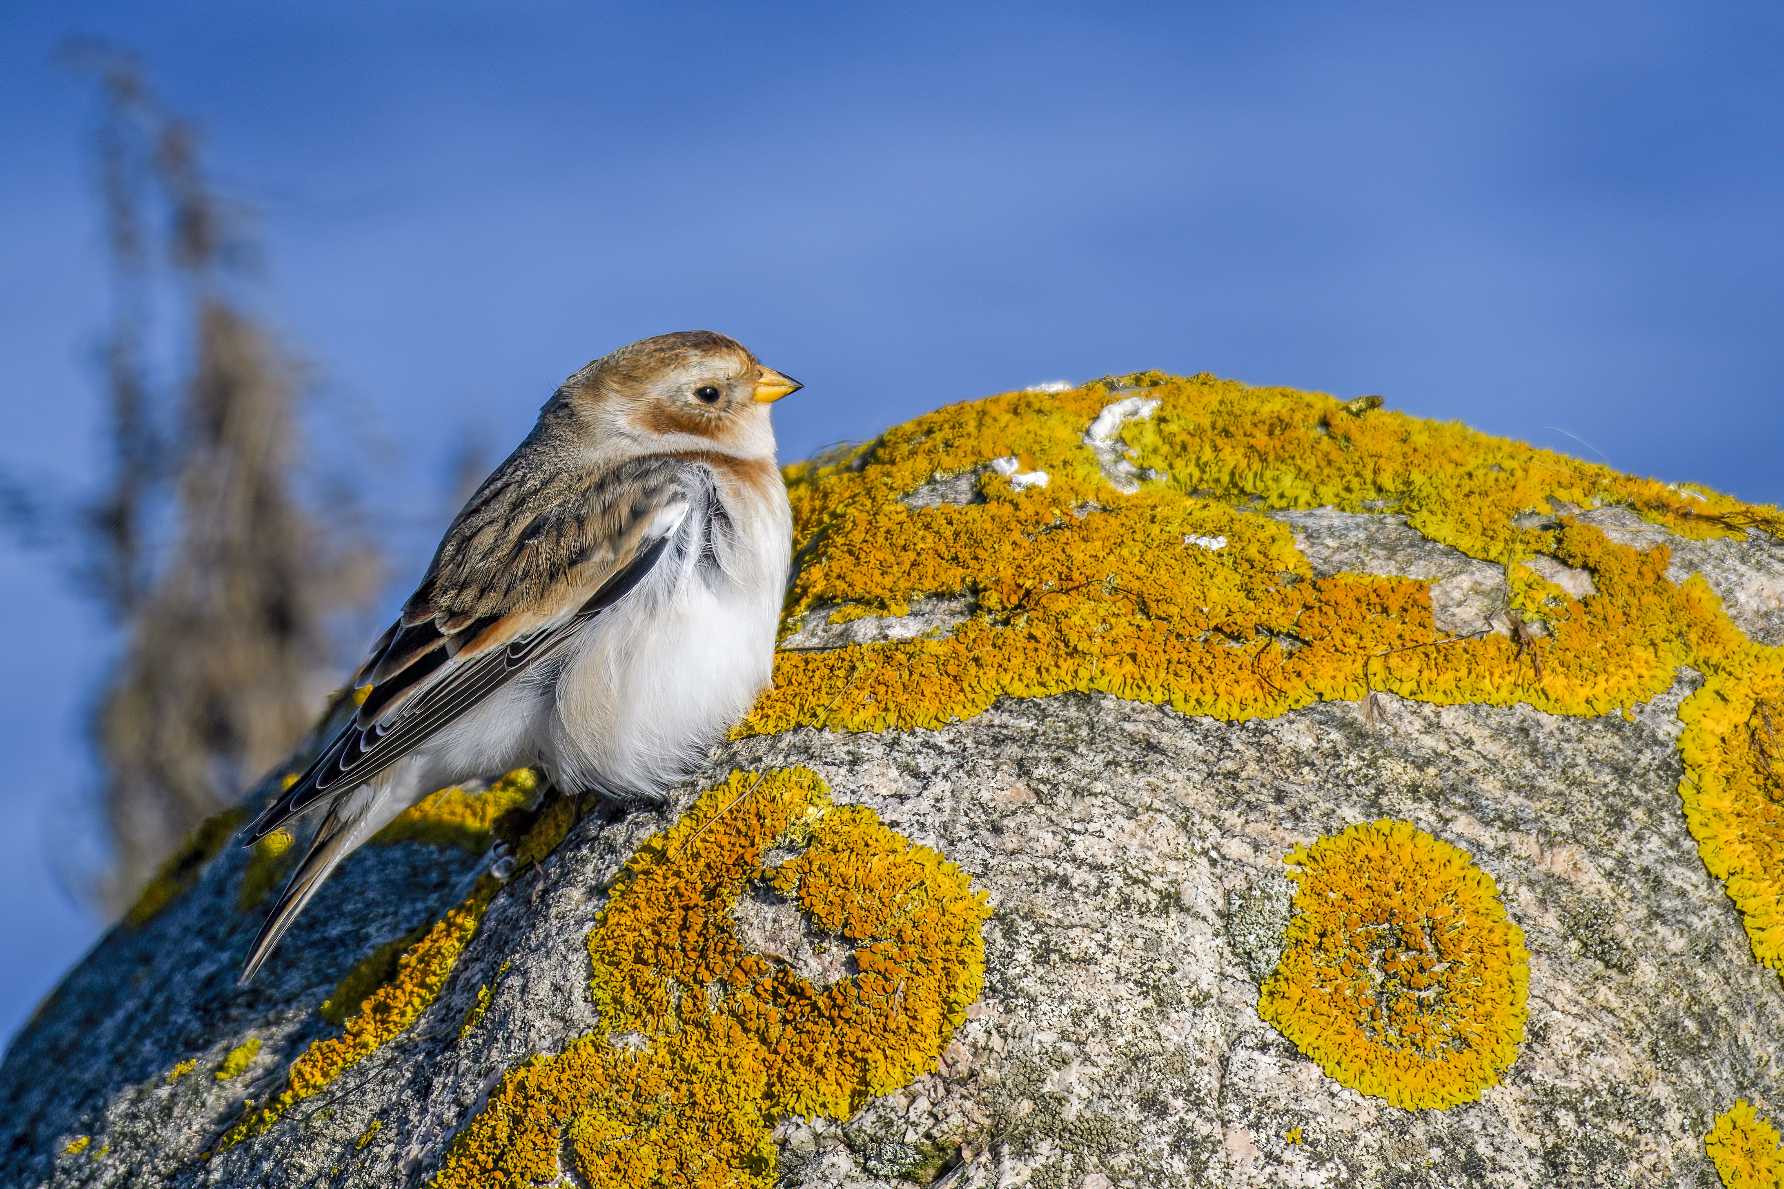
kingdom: Animalia
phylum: Chordata
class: Aves
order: Passeriformes
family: Calcariidae
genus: Plectrophenax
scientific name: Plectrophenax nivalis
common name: Snespurv
